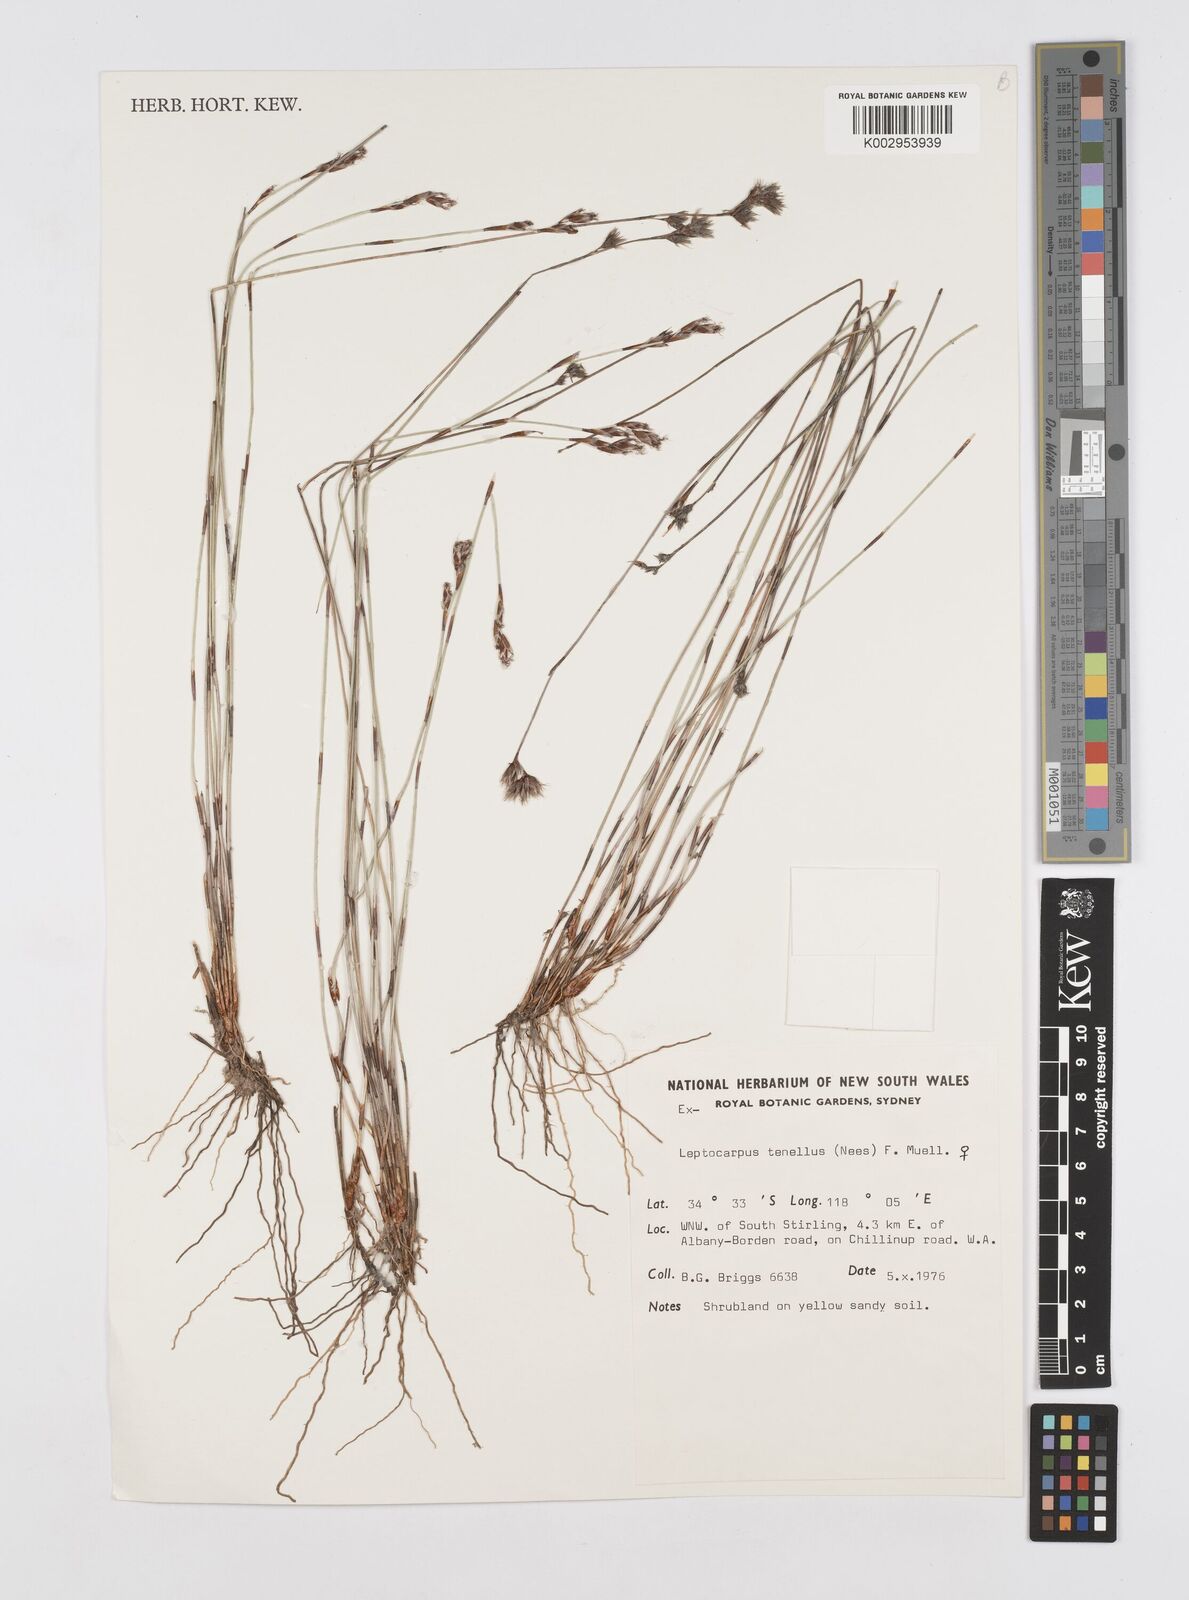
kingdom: Plantae
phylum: Tracheophyta
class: Liliopsida
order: Poales
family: Restionaceae
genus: Chaetanthus
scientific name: Chaetanthus tenellus
